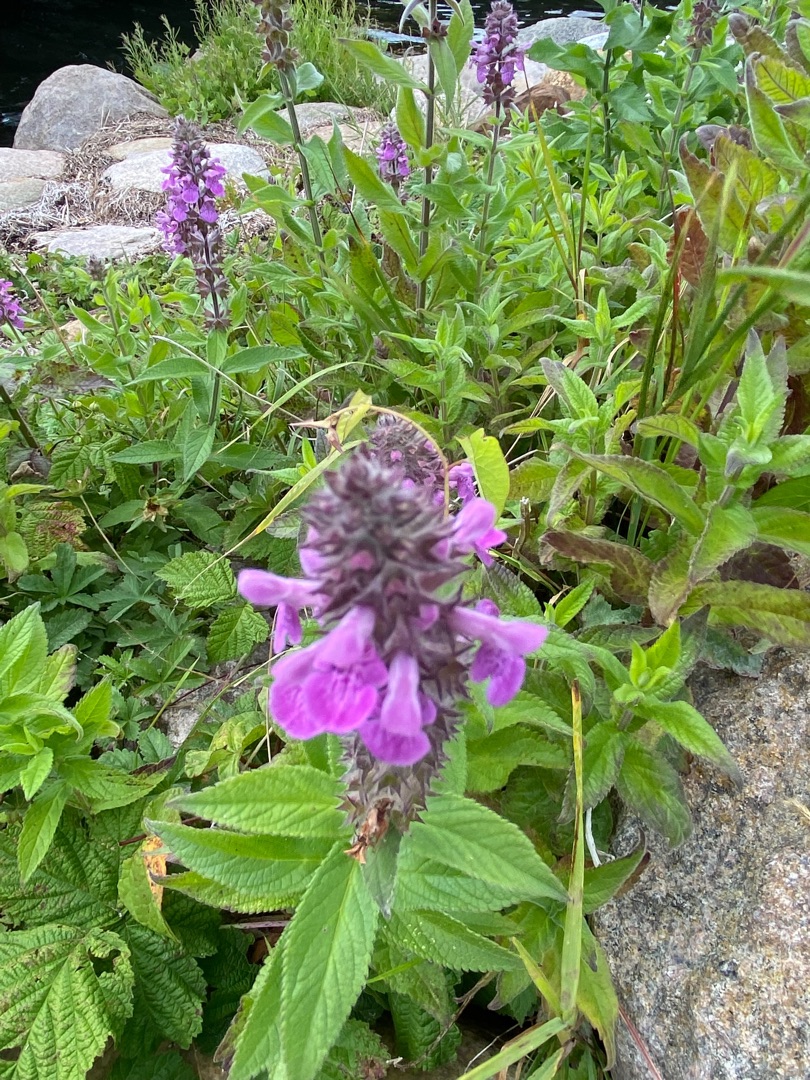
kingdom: Plantae
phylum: Tracheophyta
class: Magnoliopsida
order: Lamiales
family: Lamiaceae
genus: Stachys
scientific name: Stachys palustris
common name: Kær-galtetand
